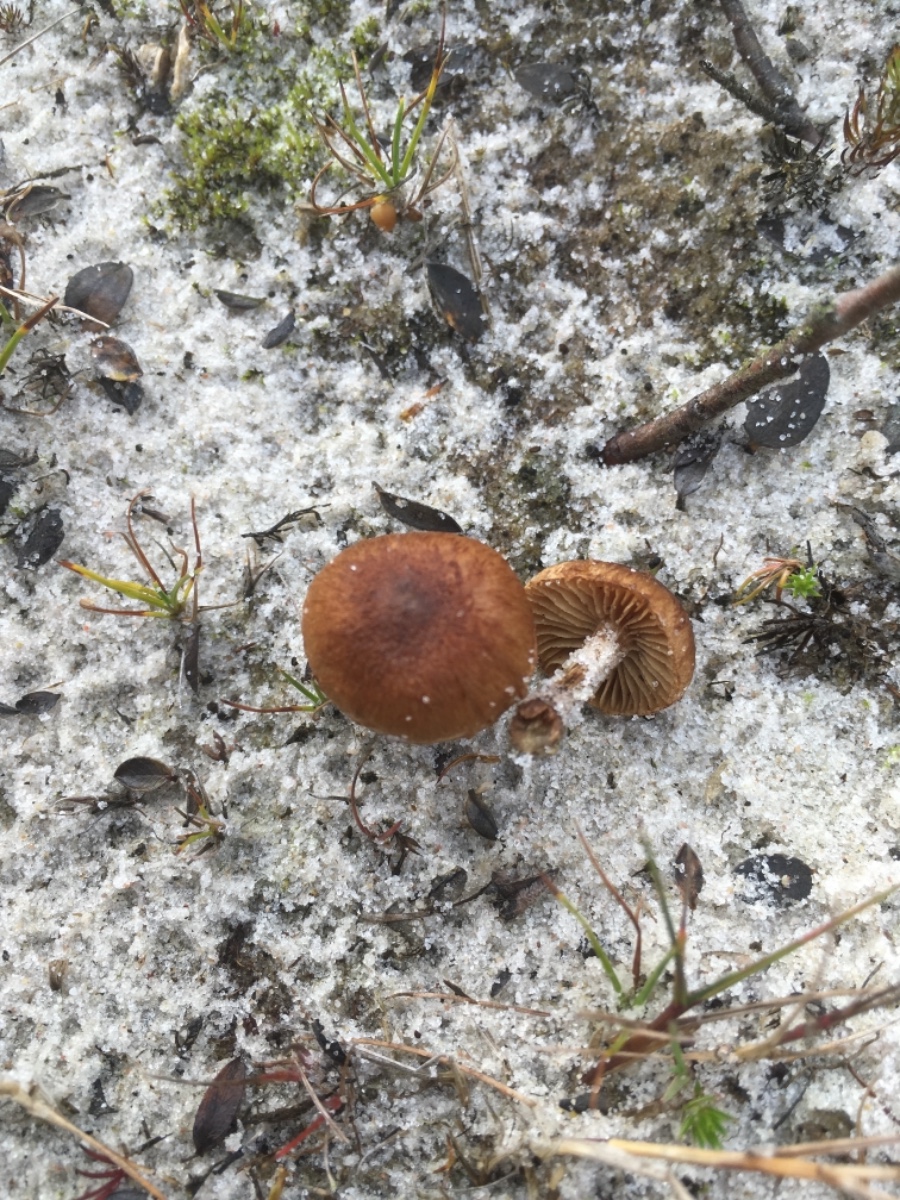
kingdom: Fungi
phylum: Basidiomycota
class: Agaricomycetes
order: Agaricales
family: Psathyrellaceae
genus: Psathyrella
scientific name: Psathyrella ammophila
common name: klit-mørkhat
